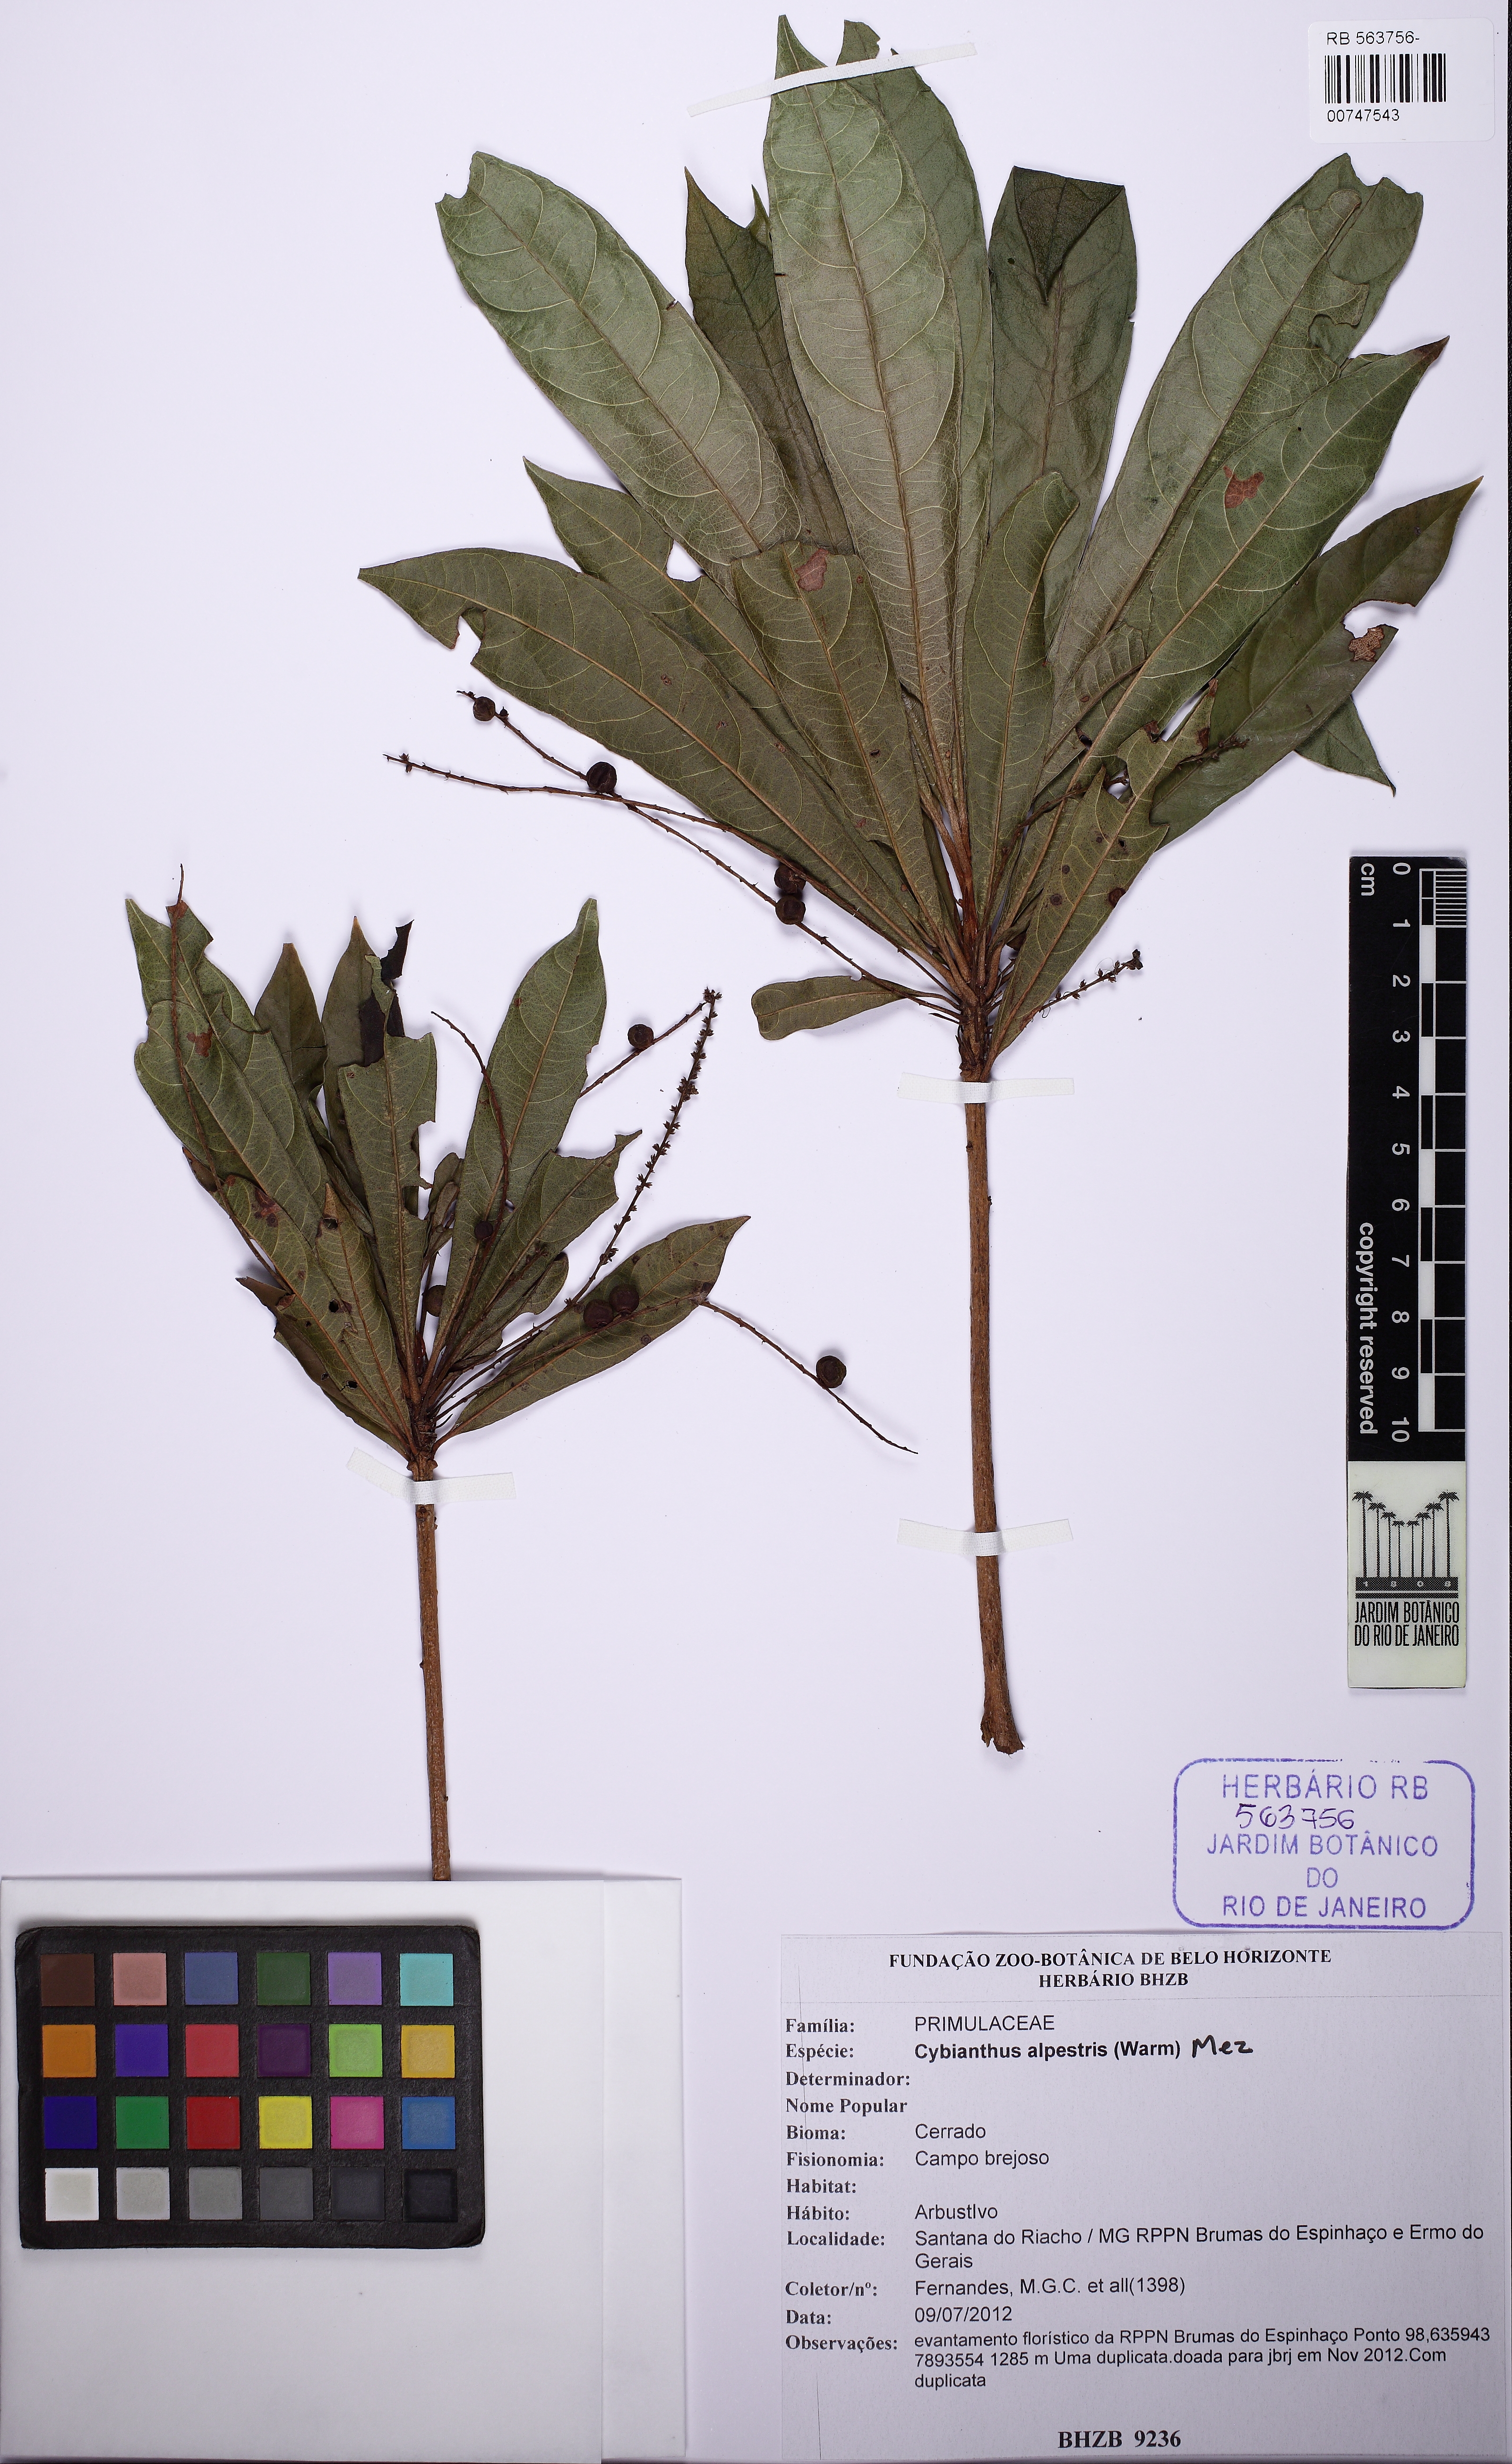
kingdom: Plantae
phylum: Tracheophyta
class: Magnoliopsida
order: Ericales
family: Primulaceae
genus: Cybianthus
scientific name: Cybianthus alpestris
